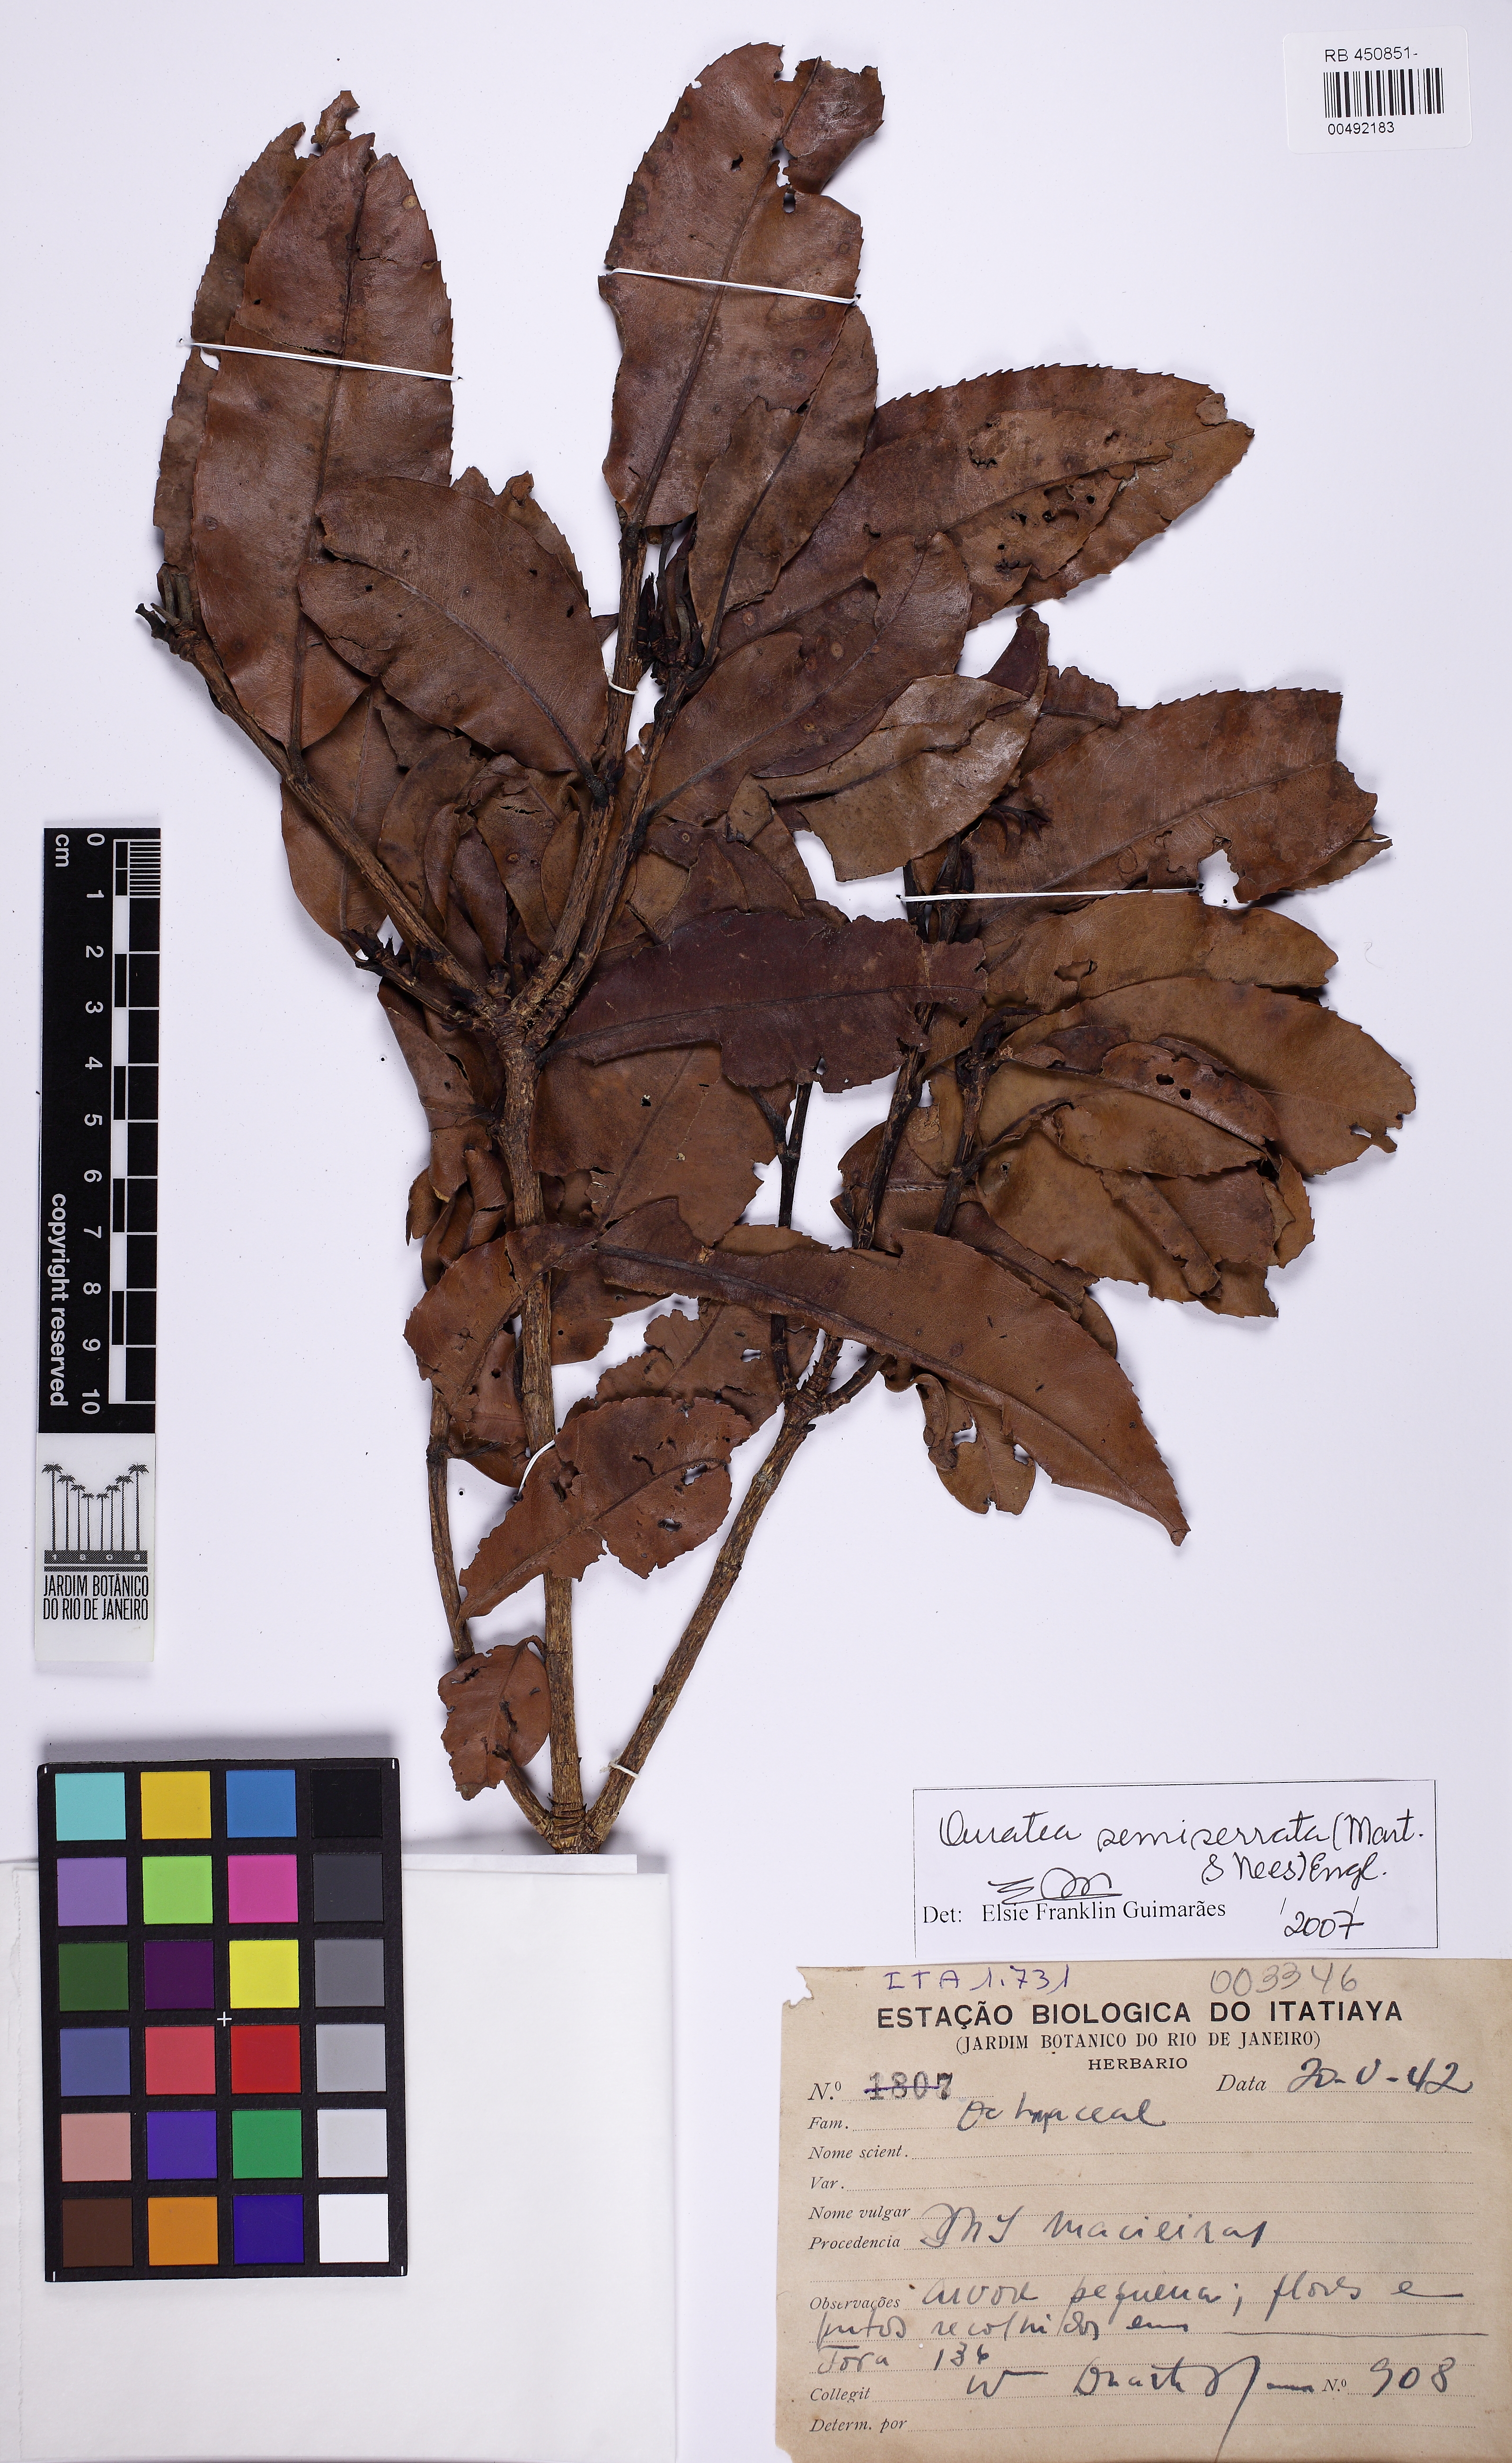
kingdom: Plantae
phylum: Tracheophyta
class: Magnoliopsida
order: Malpighiales
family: Ochnaceae
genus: Ouratea
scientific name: Ouratea semiserrata
